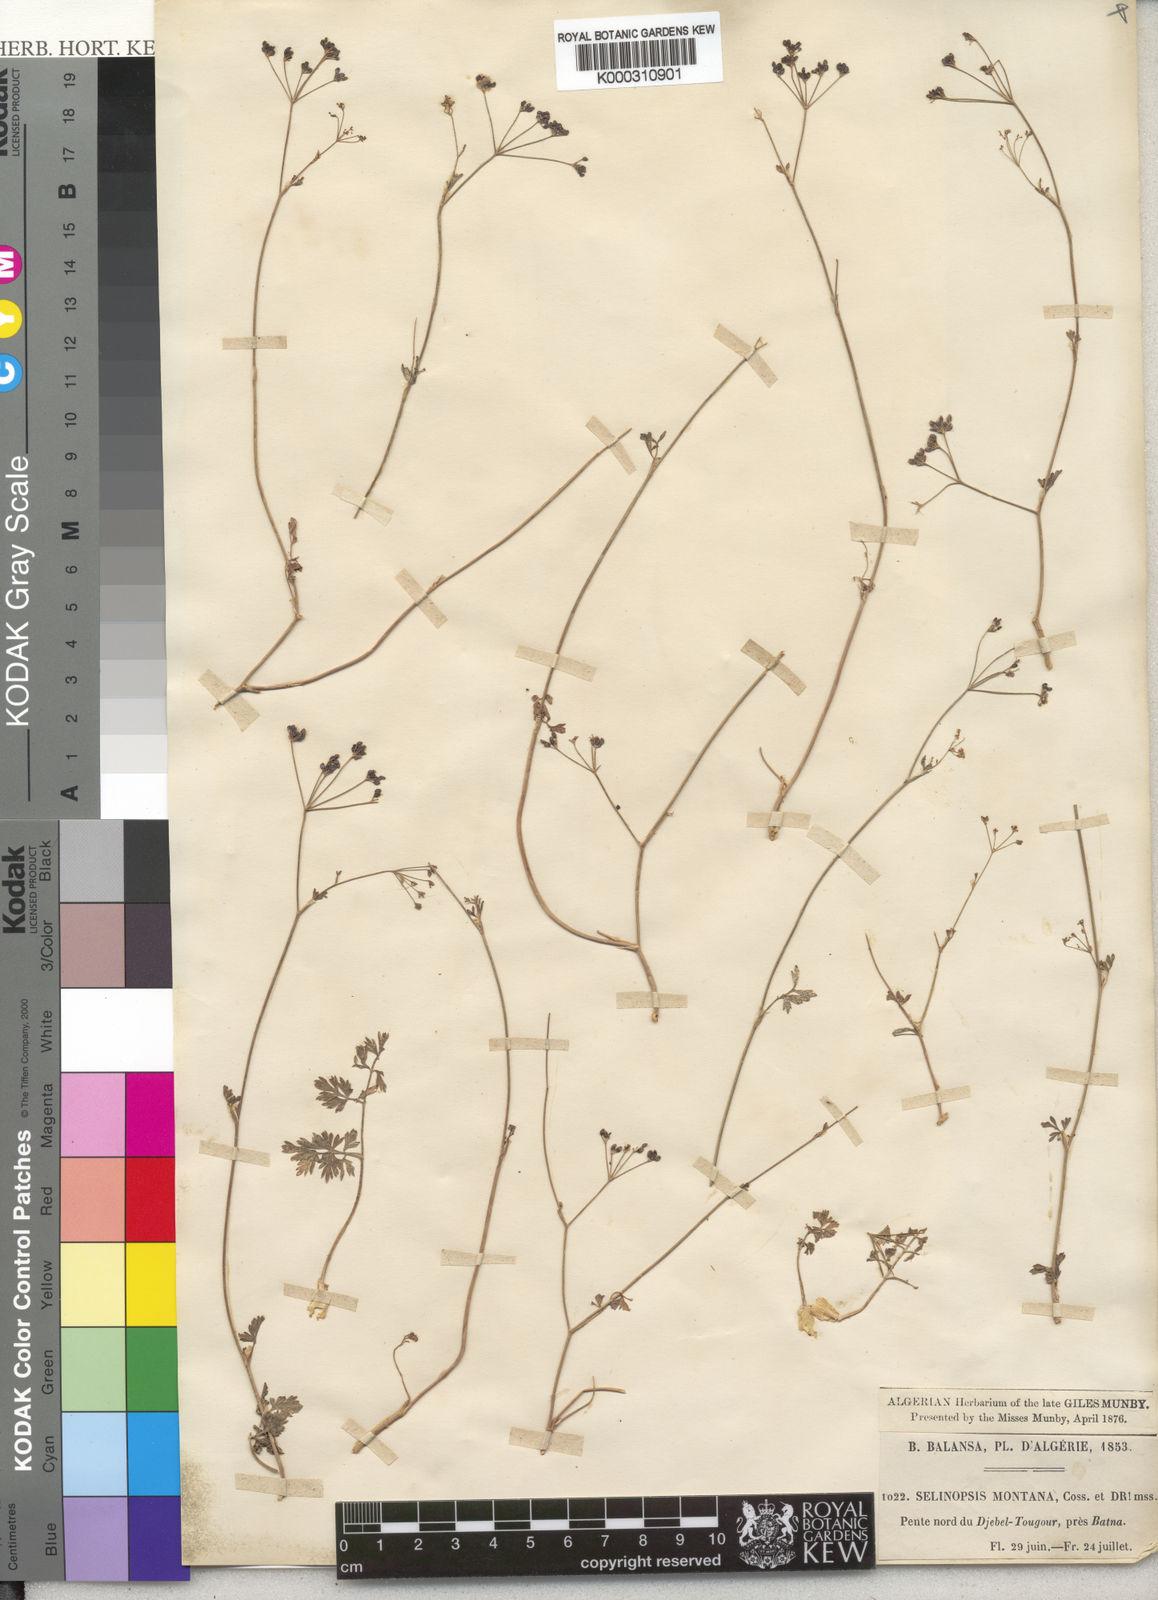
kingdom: Plantae
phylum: Tracheophyta
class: Magnoliopsida
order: Apiales
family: Apiaceae
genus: Perideridia
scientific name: Perideridia gairdneri
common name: False caraway
